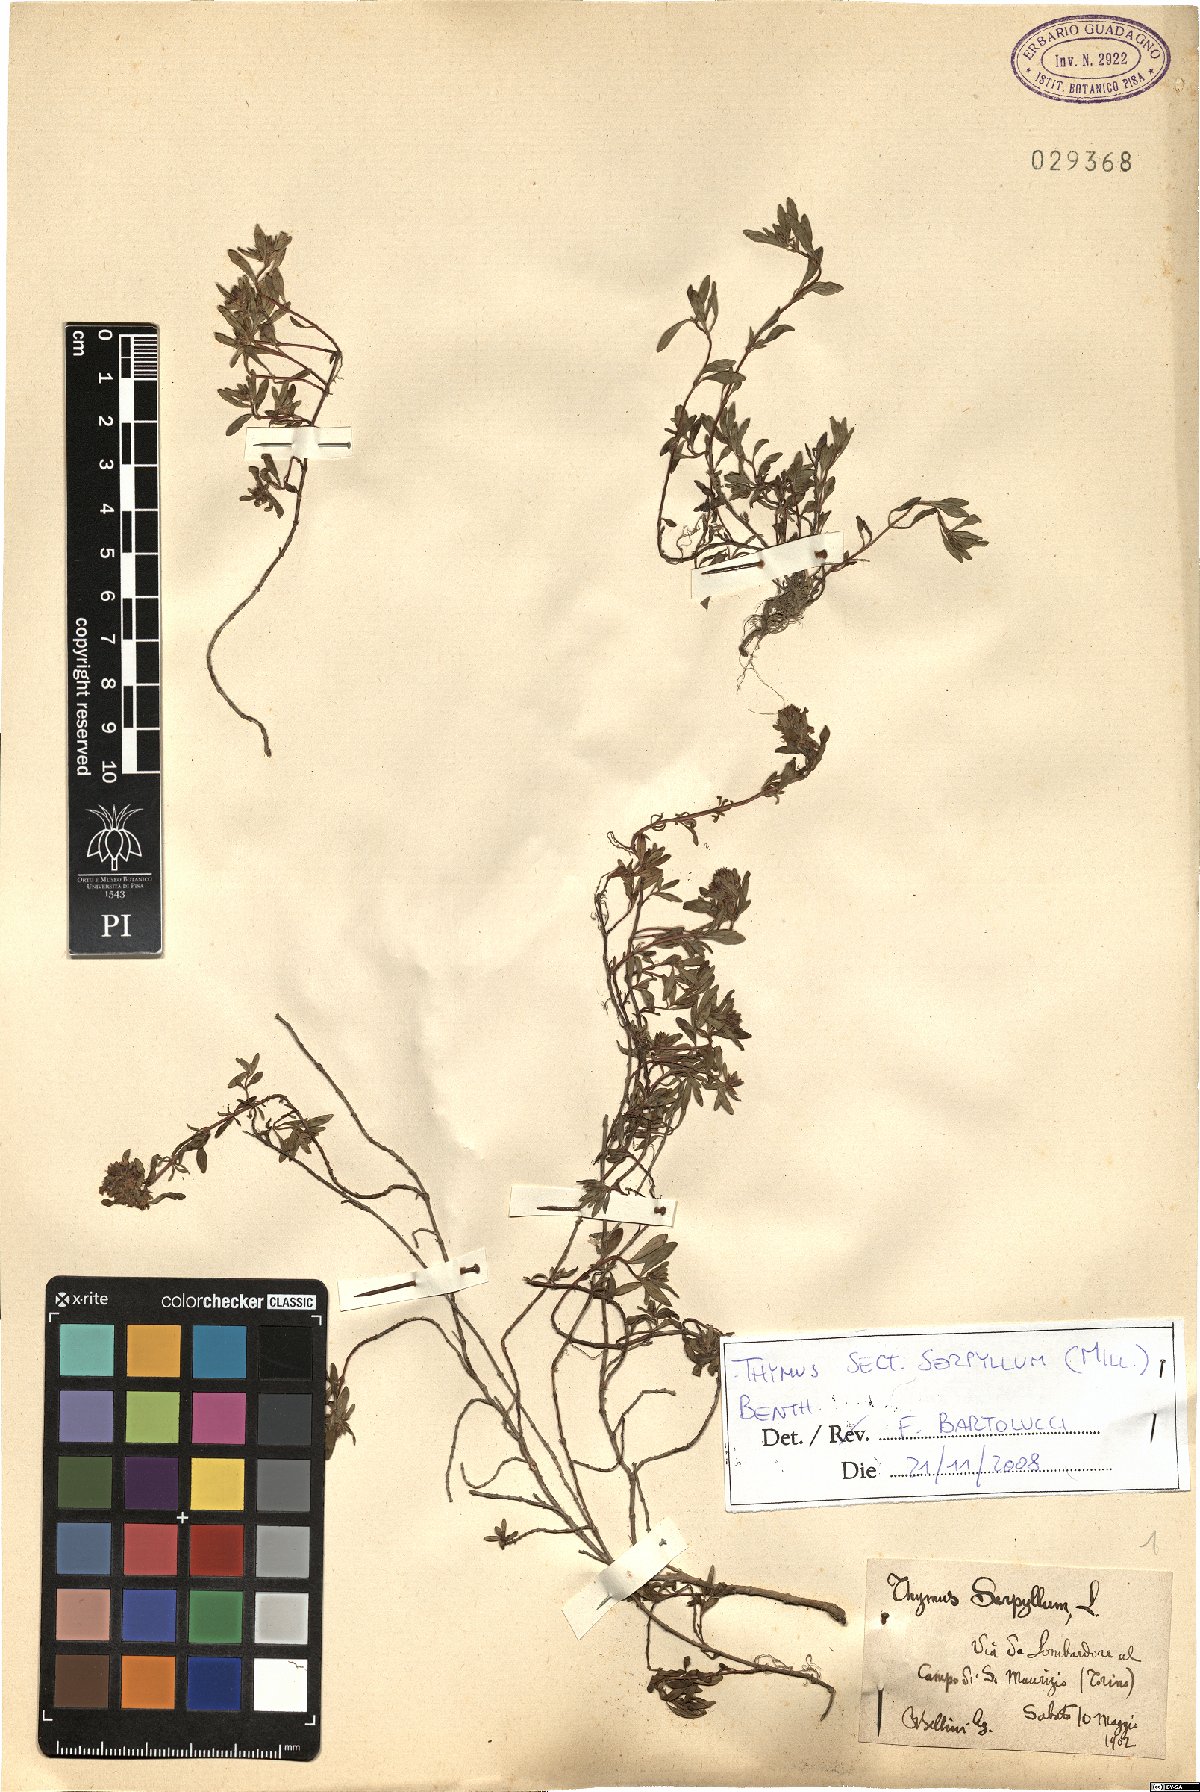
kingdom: Plantae
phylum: Tracheophyta
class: Magnoliopsida
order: Lamiales
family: Lamiaceae
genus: Thymus
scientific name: Thymus serpyllum
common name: Breckland thyme
